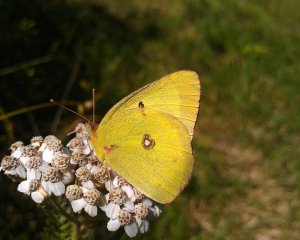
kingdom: Animalia
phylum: Arthropoda
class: Insecta
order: Lepidoptera
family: Pieridae
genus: Colias
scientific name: Colias philodice
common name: Clouded Sulphur
